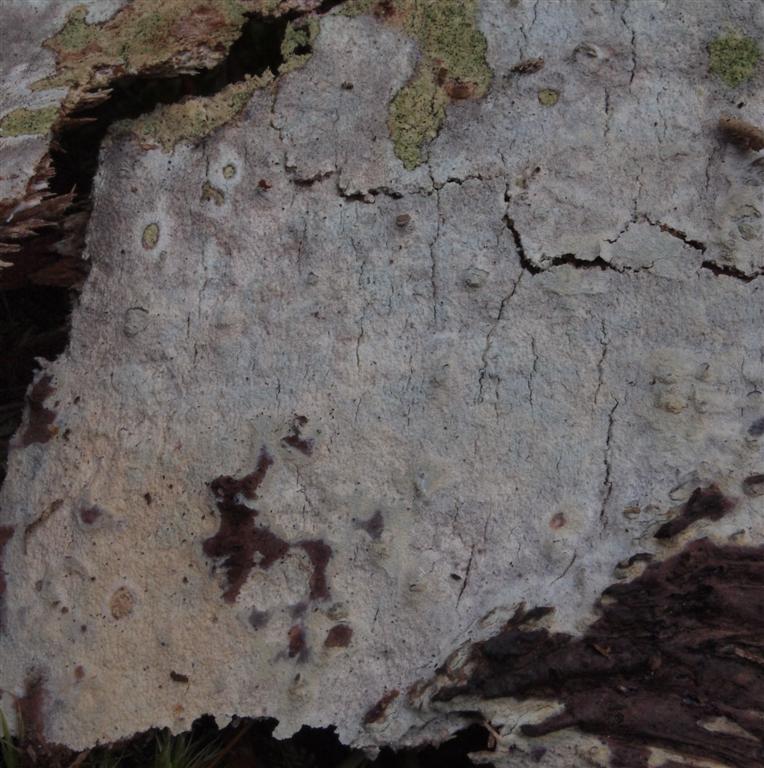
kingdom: Fungi
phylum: Basidiomycota
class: Agaricomycetes
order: Hymenochaetales
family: Rickenellaceae
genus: Resinicium
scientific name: Resinicium bicolor
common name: almindelig vokstand
